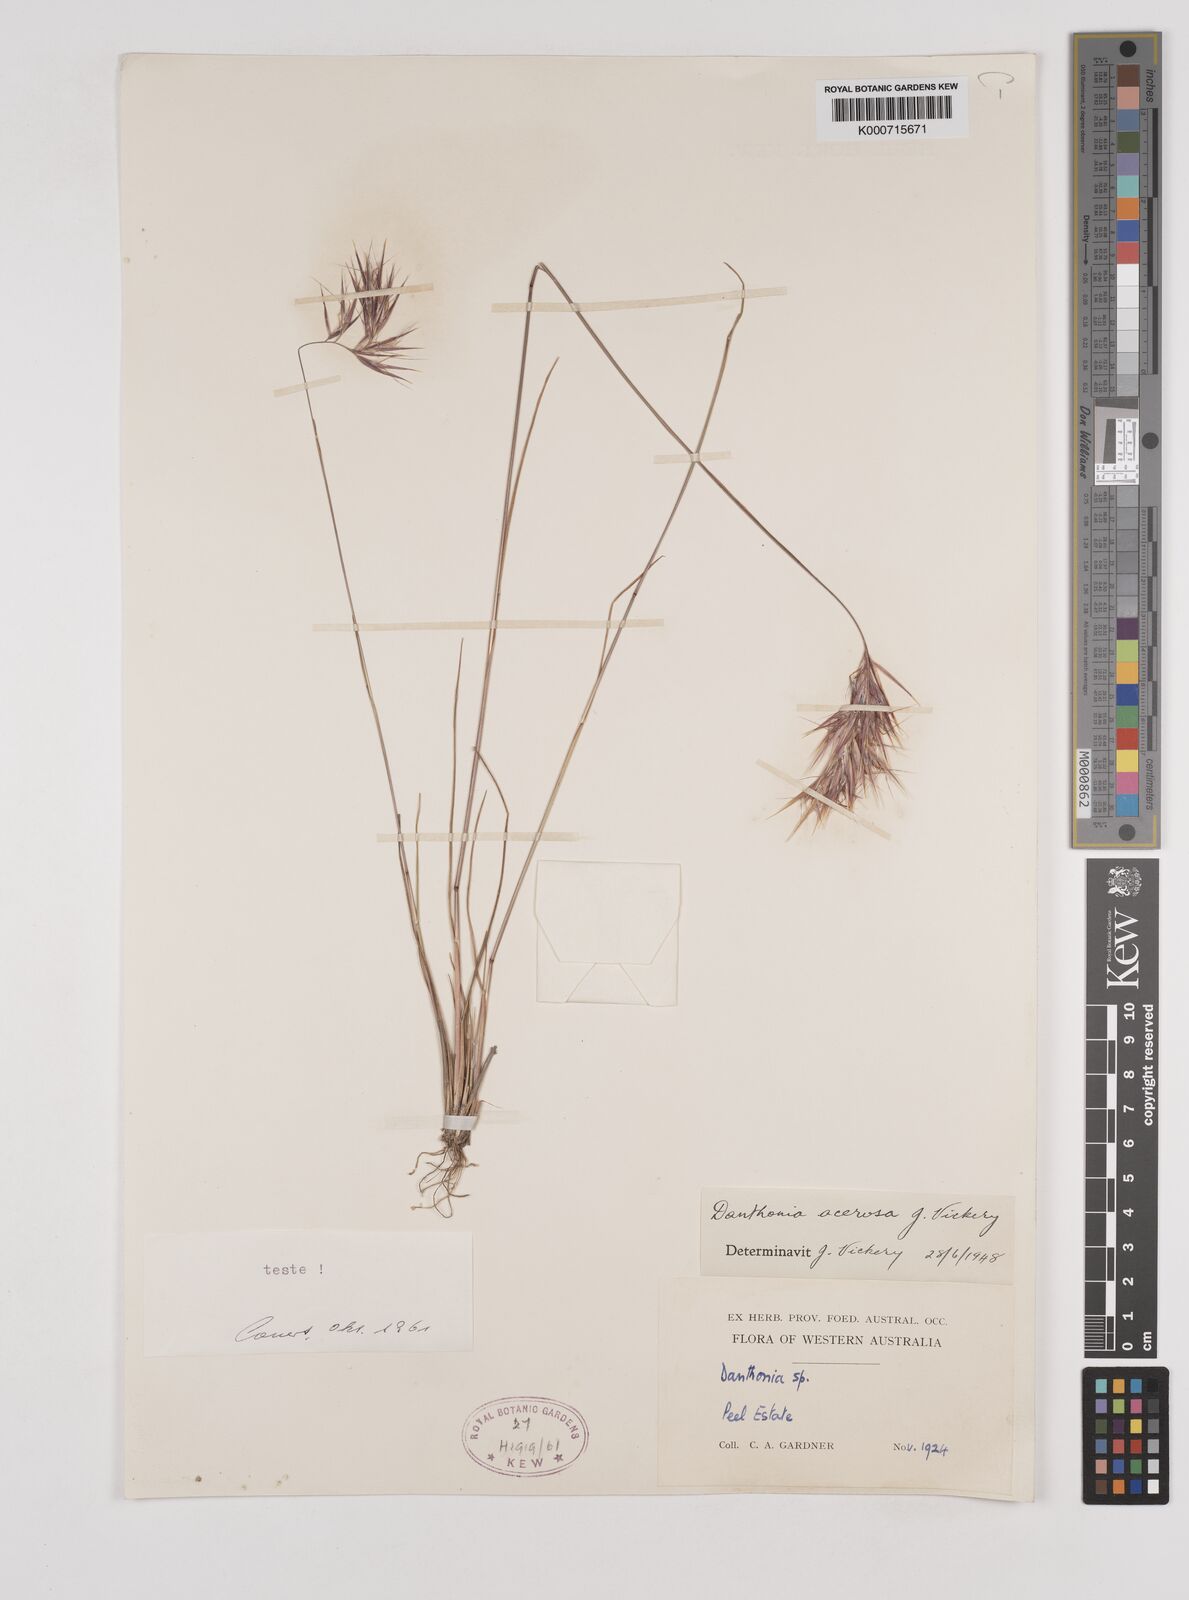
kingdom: Plantae
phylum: Tracheophyta
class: Liliopsida
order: Poales
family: Poaceae
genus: Rytidosperma
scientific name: Rytidosperma acerosum
